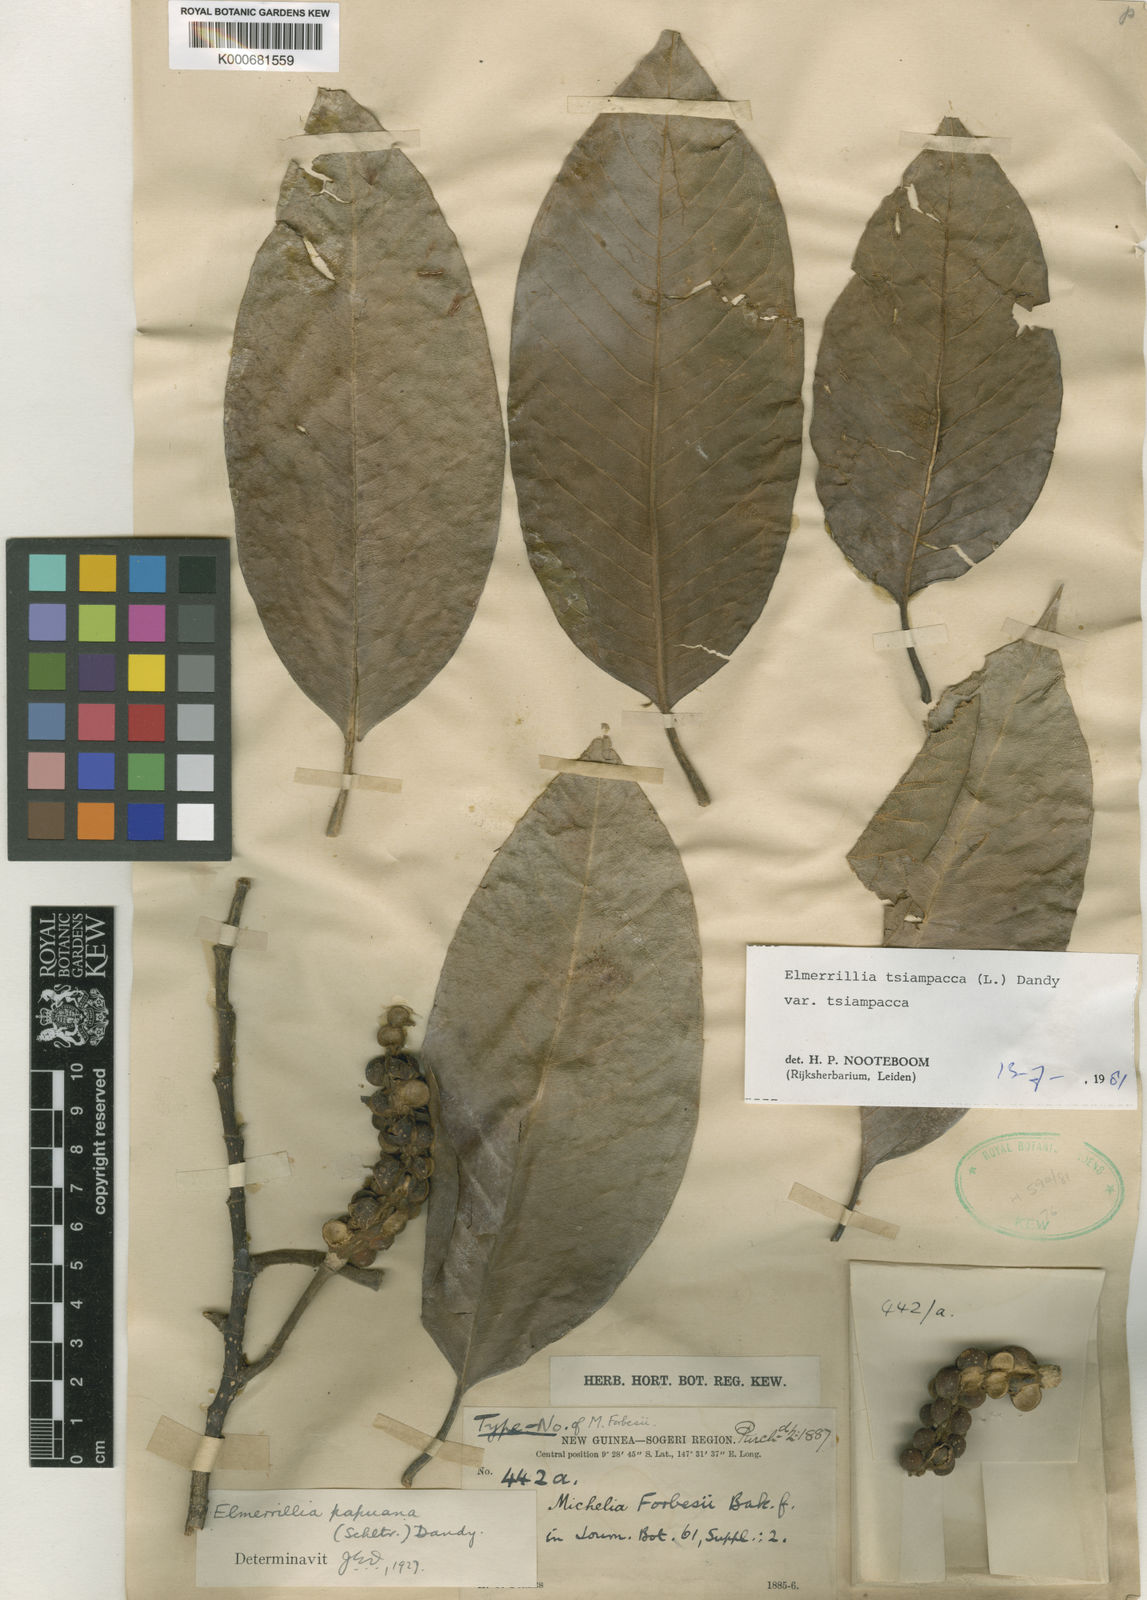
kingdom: Plantae
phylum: Tracheophyta
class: Magnoliopsida
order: Magnoliales
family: Magnoliaceae
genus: Magnolia
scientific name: Magnolia tsiampacca
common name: Wau-beech
